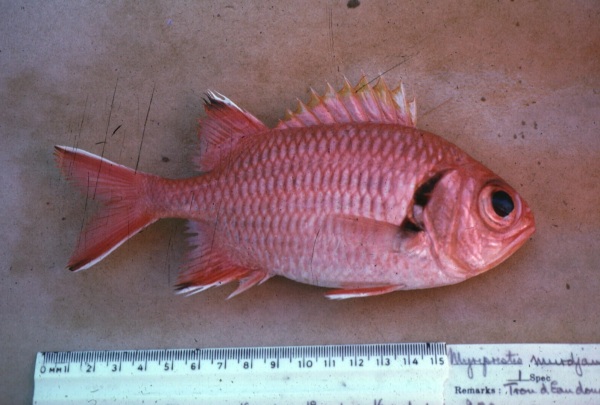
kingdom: Animalia
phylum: Chordata
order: Beryciformes
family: Holocentridae
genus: Myripristis
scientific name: Myripristis berndti
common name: Bigscale soldierfish
